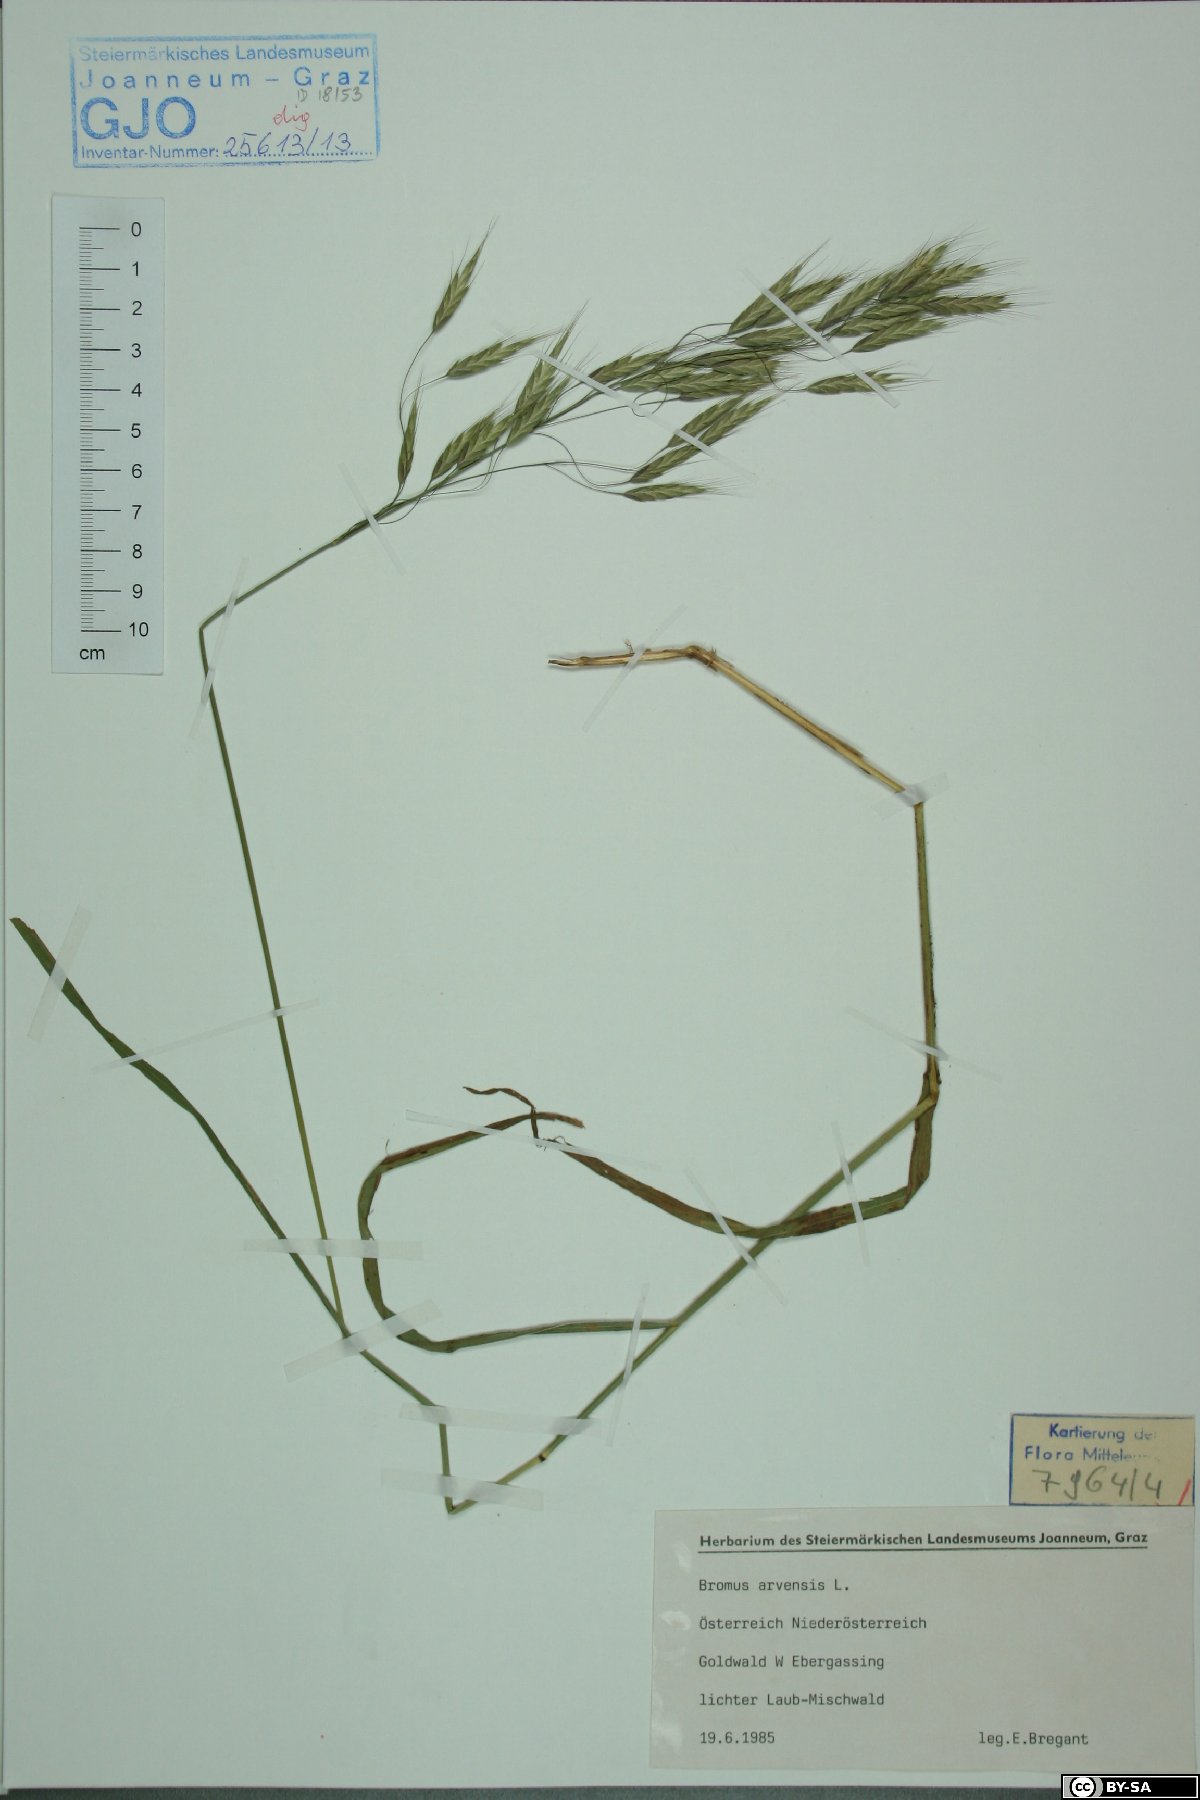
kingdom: Plantae
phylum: Tracheophyta
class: Liliopsida
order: Poales
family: Poaceae
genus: Bromus
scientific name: Bromus arvensis
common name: Field brome
